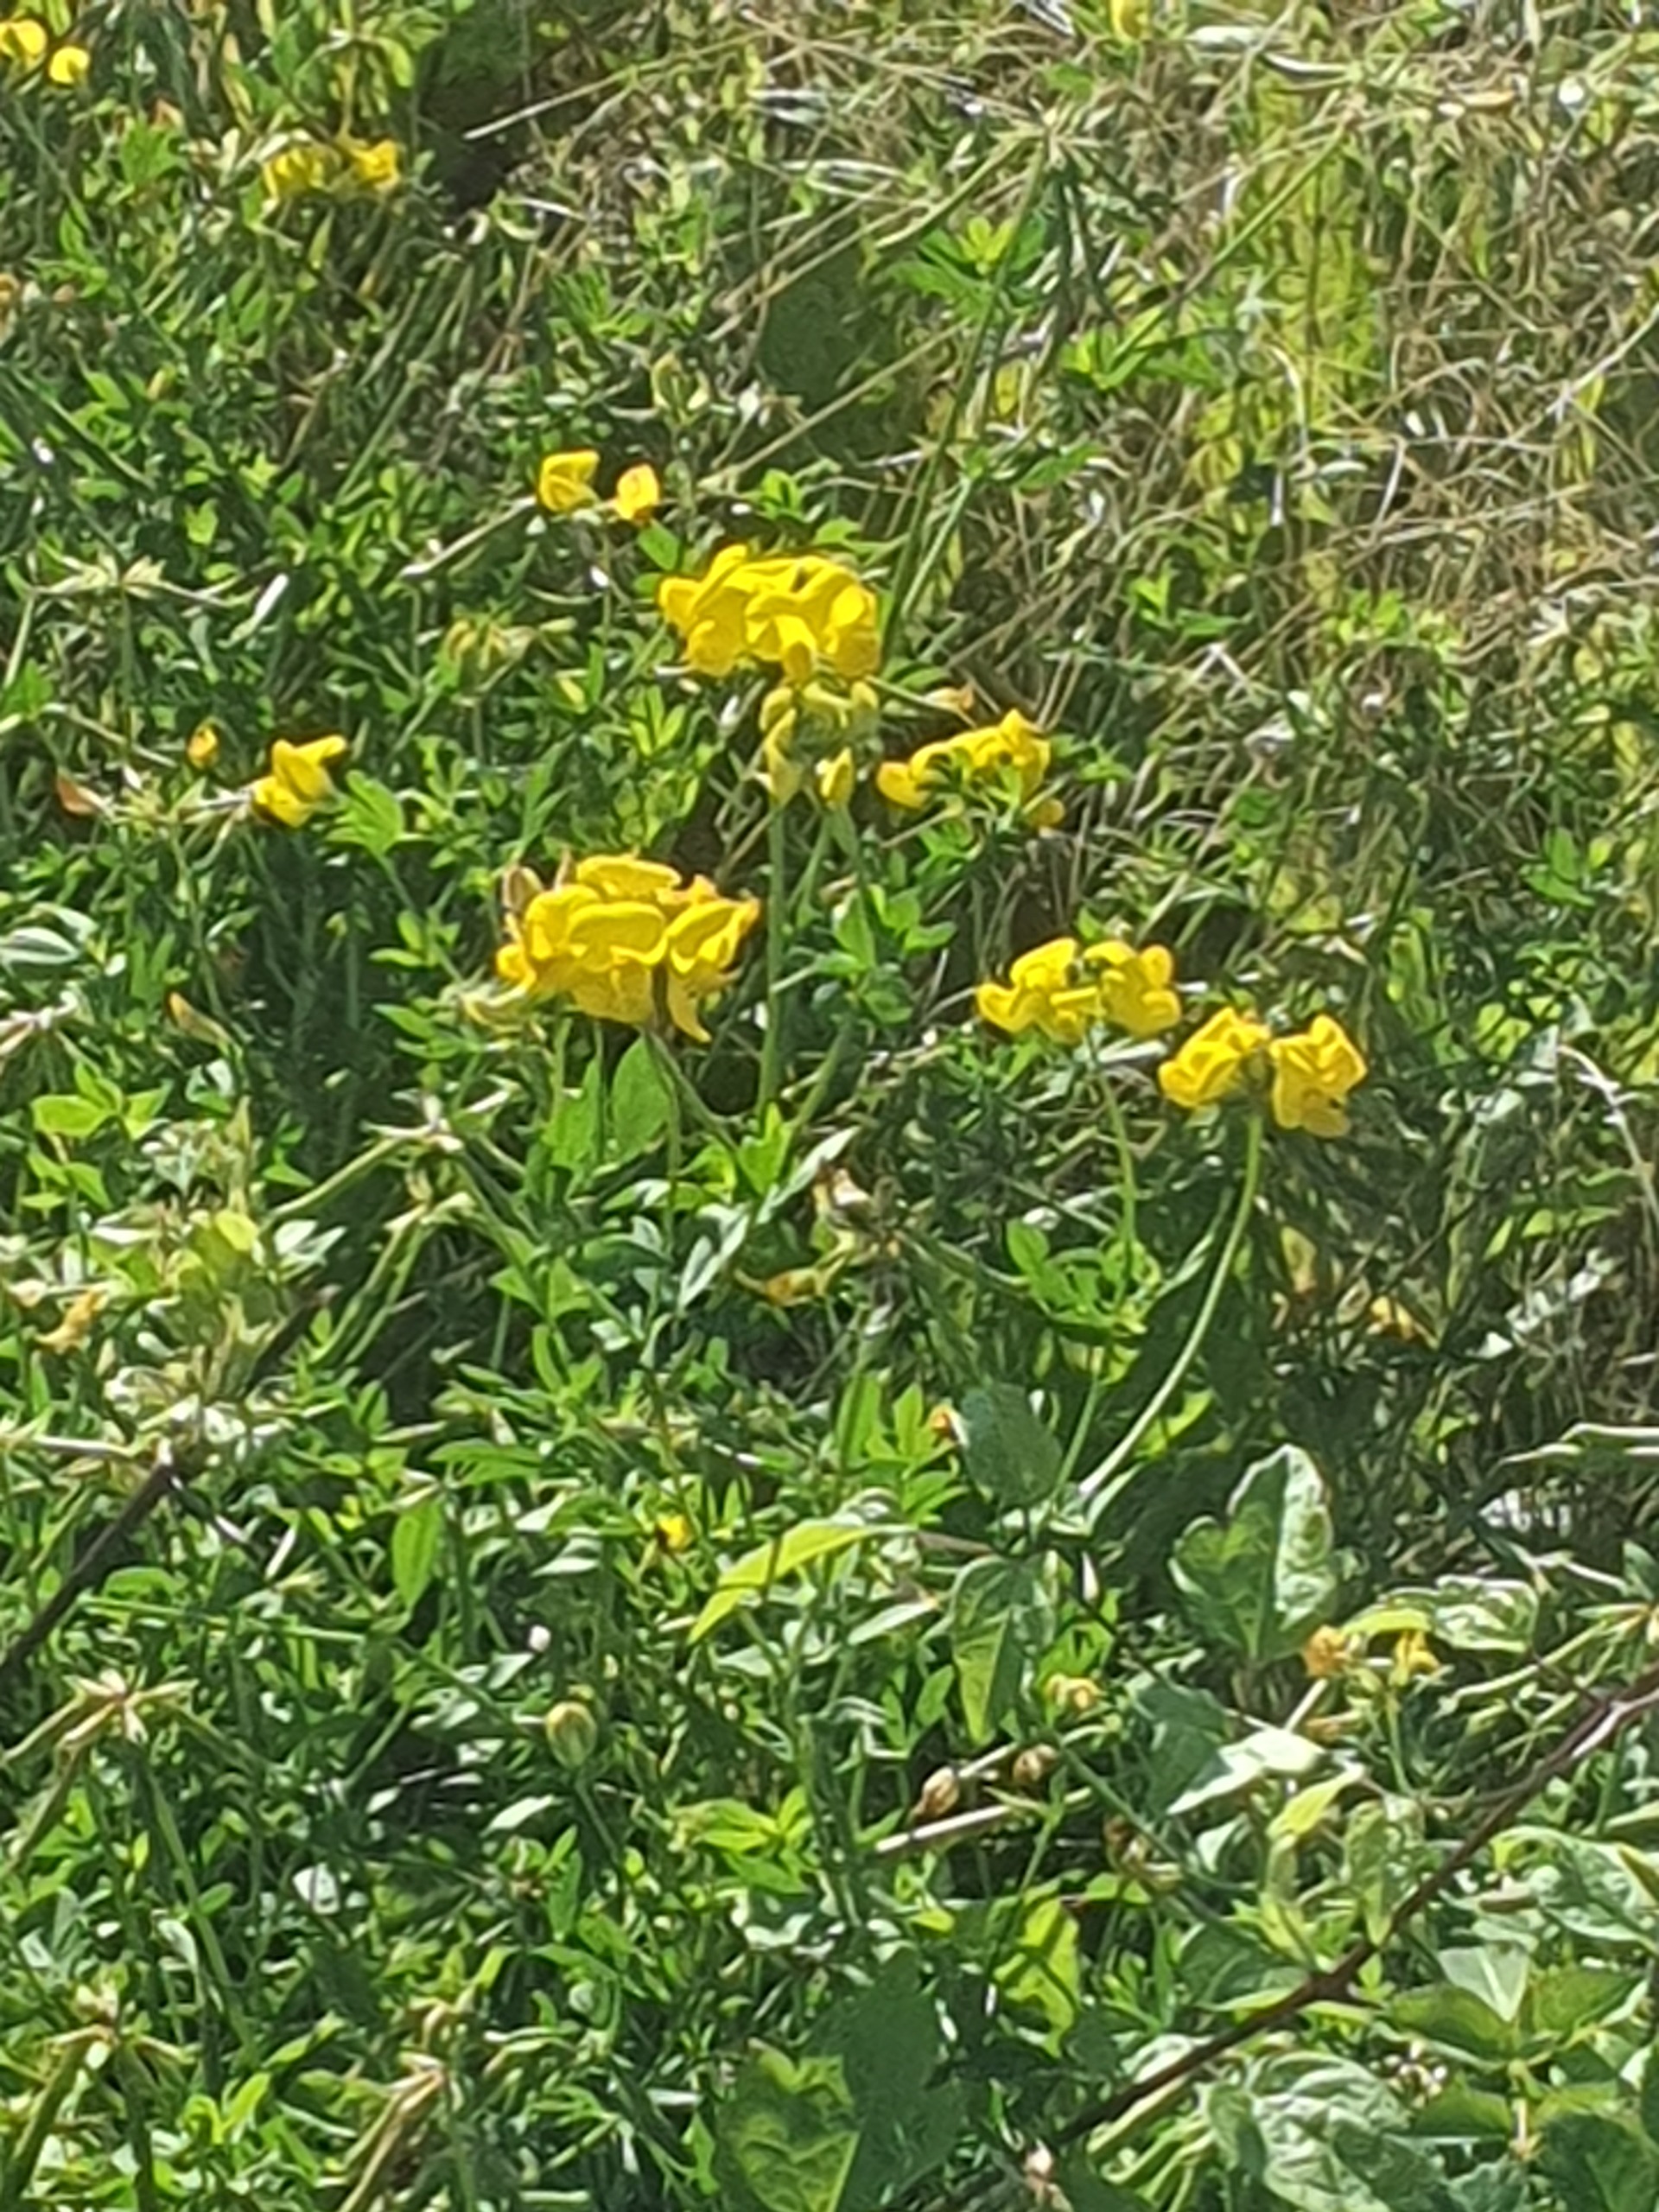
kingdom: Plantae
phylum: Tracheophyta
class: Magnoliopsida
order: Fabales
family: Fabaceae
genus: Lotus
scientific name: Lotus corniculatus
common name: Almindelig kællingetand
